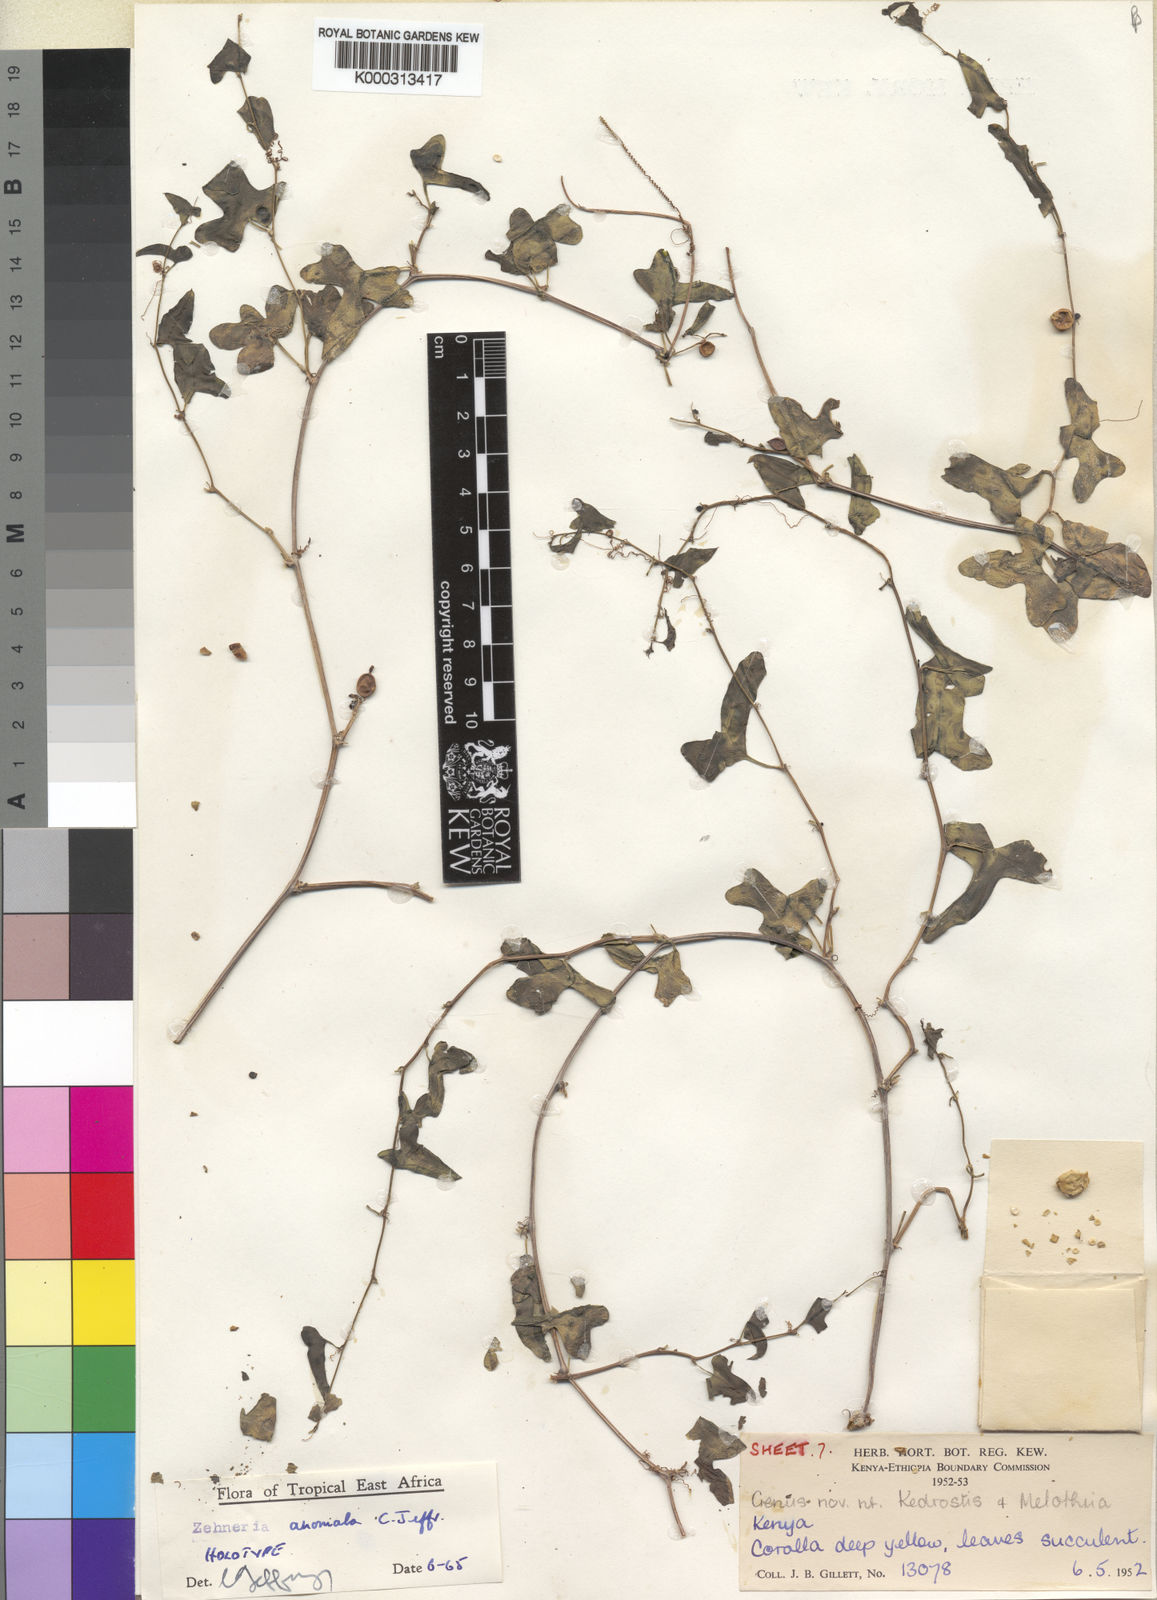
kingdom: Plantae
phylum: Tracheophyta
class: Magnoliopsida
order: Cucurbitales
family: Cucurbitaceae
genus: Zehneria
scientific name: Zehneria anomala
